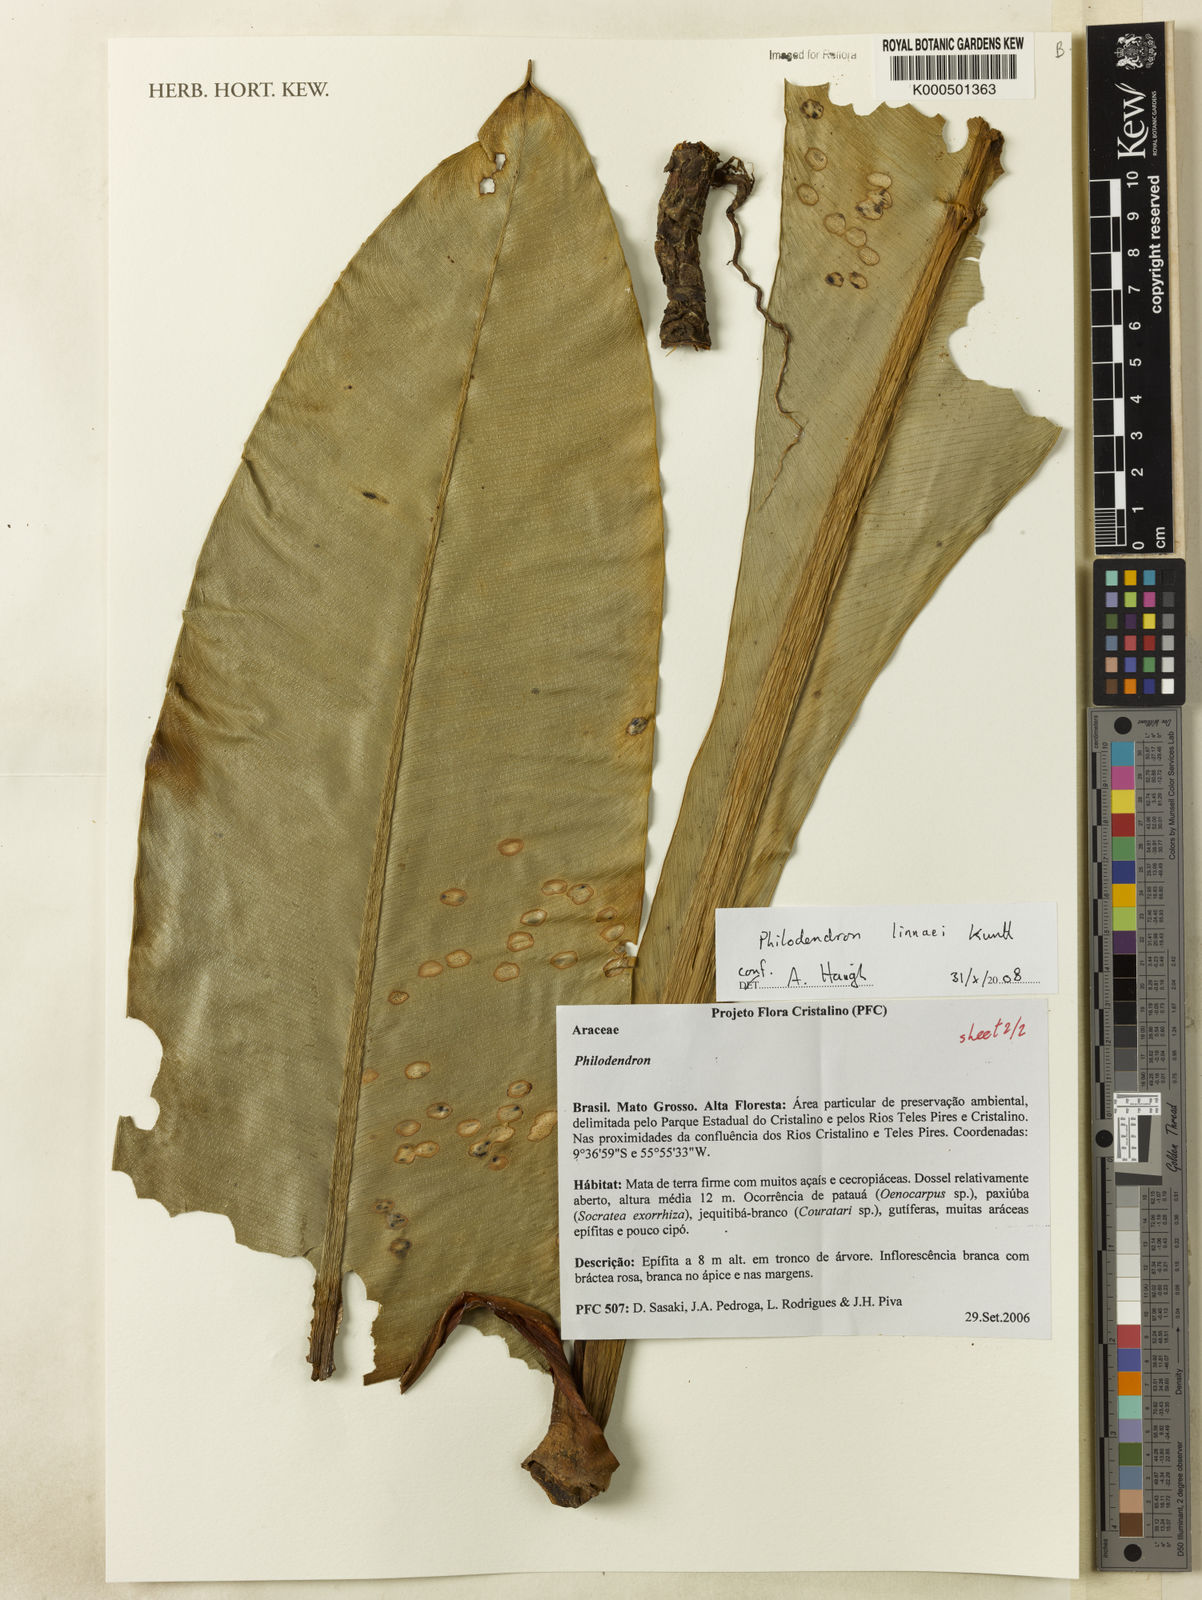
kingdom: Plantae
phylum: Tracheophyta
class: Liliopsida
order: Alismatales
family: Araceae
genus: Philodendron
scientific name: Philodendron linnaei
